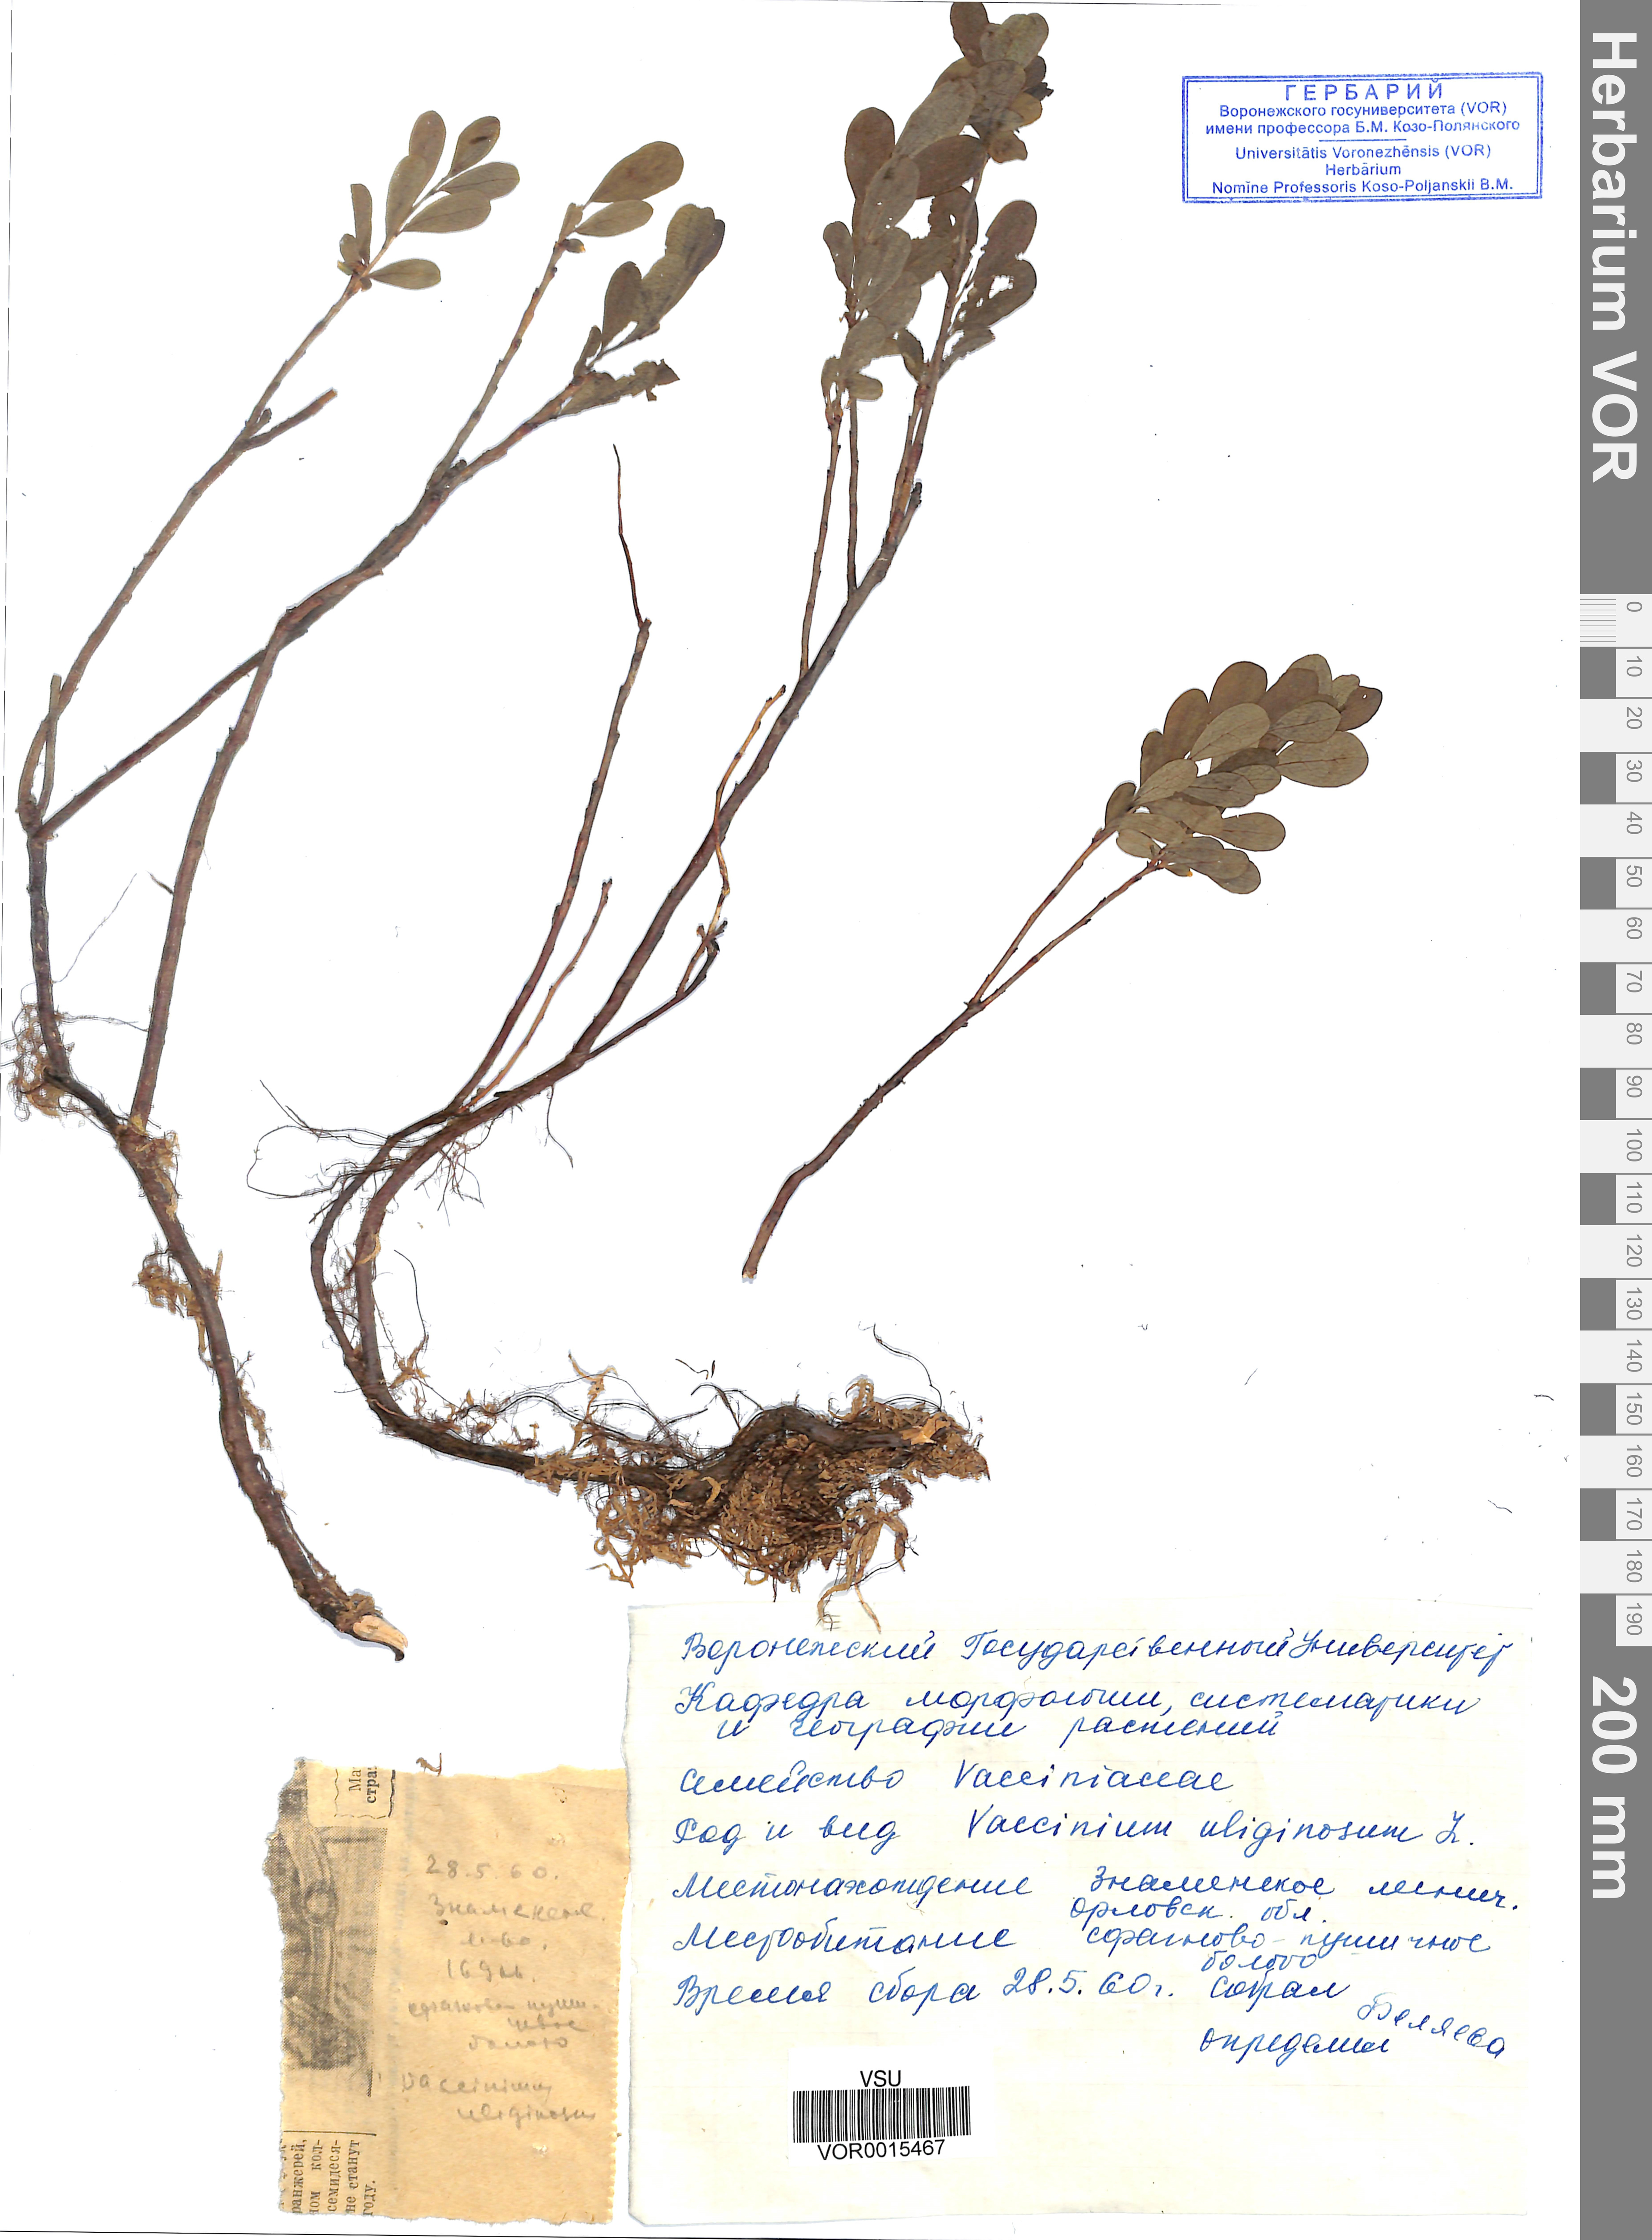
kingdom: Plantae
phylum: Tracheophyta
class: Magnoliopsida
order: Ericales
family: Ericaceae
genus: Vaccinium
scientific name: Vaccinium uliginosum
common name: Bog bilberry
